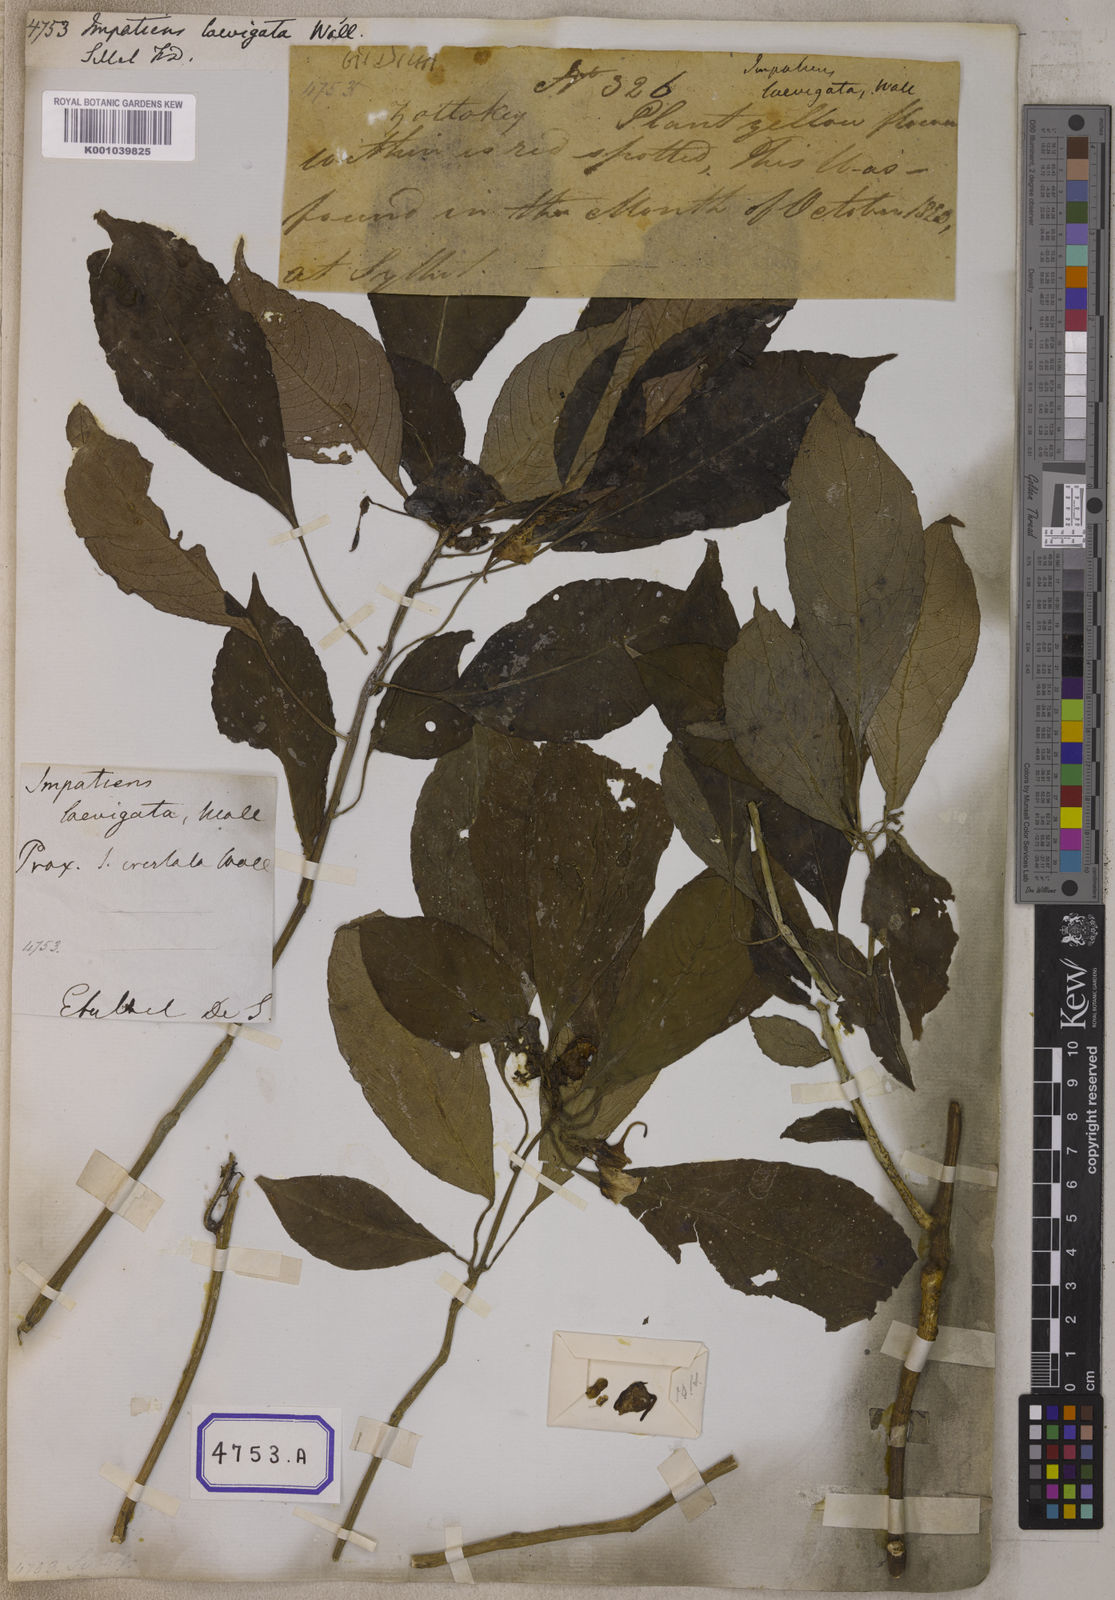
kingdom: Plantae
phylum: Tracheophyta
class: Magnoliopsida
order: Ericales
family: Balsaminaceae
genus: Impatiens
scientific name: Impatiens
